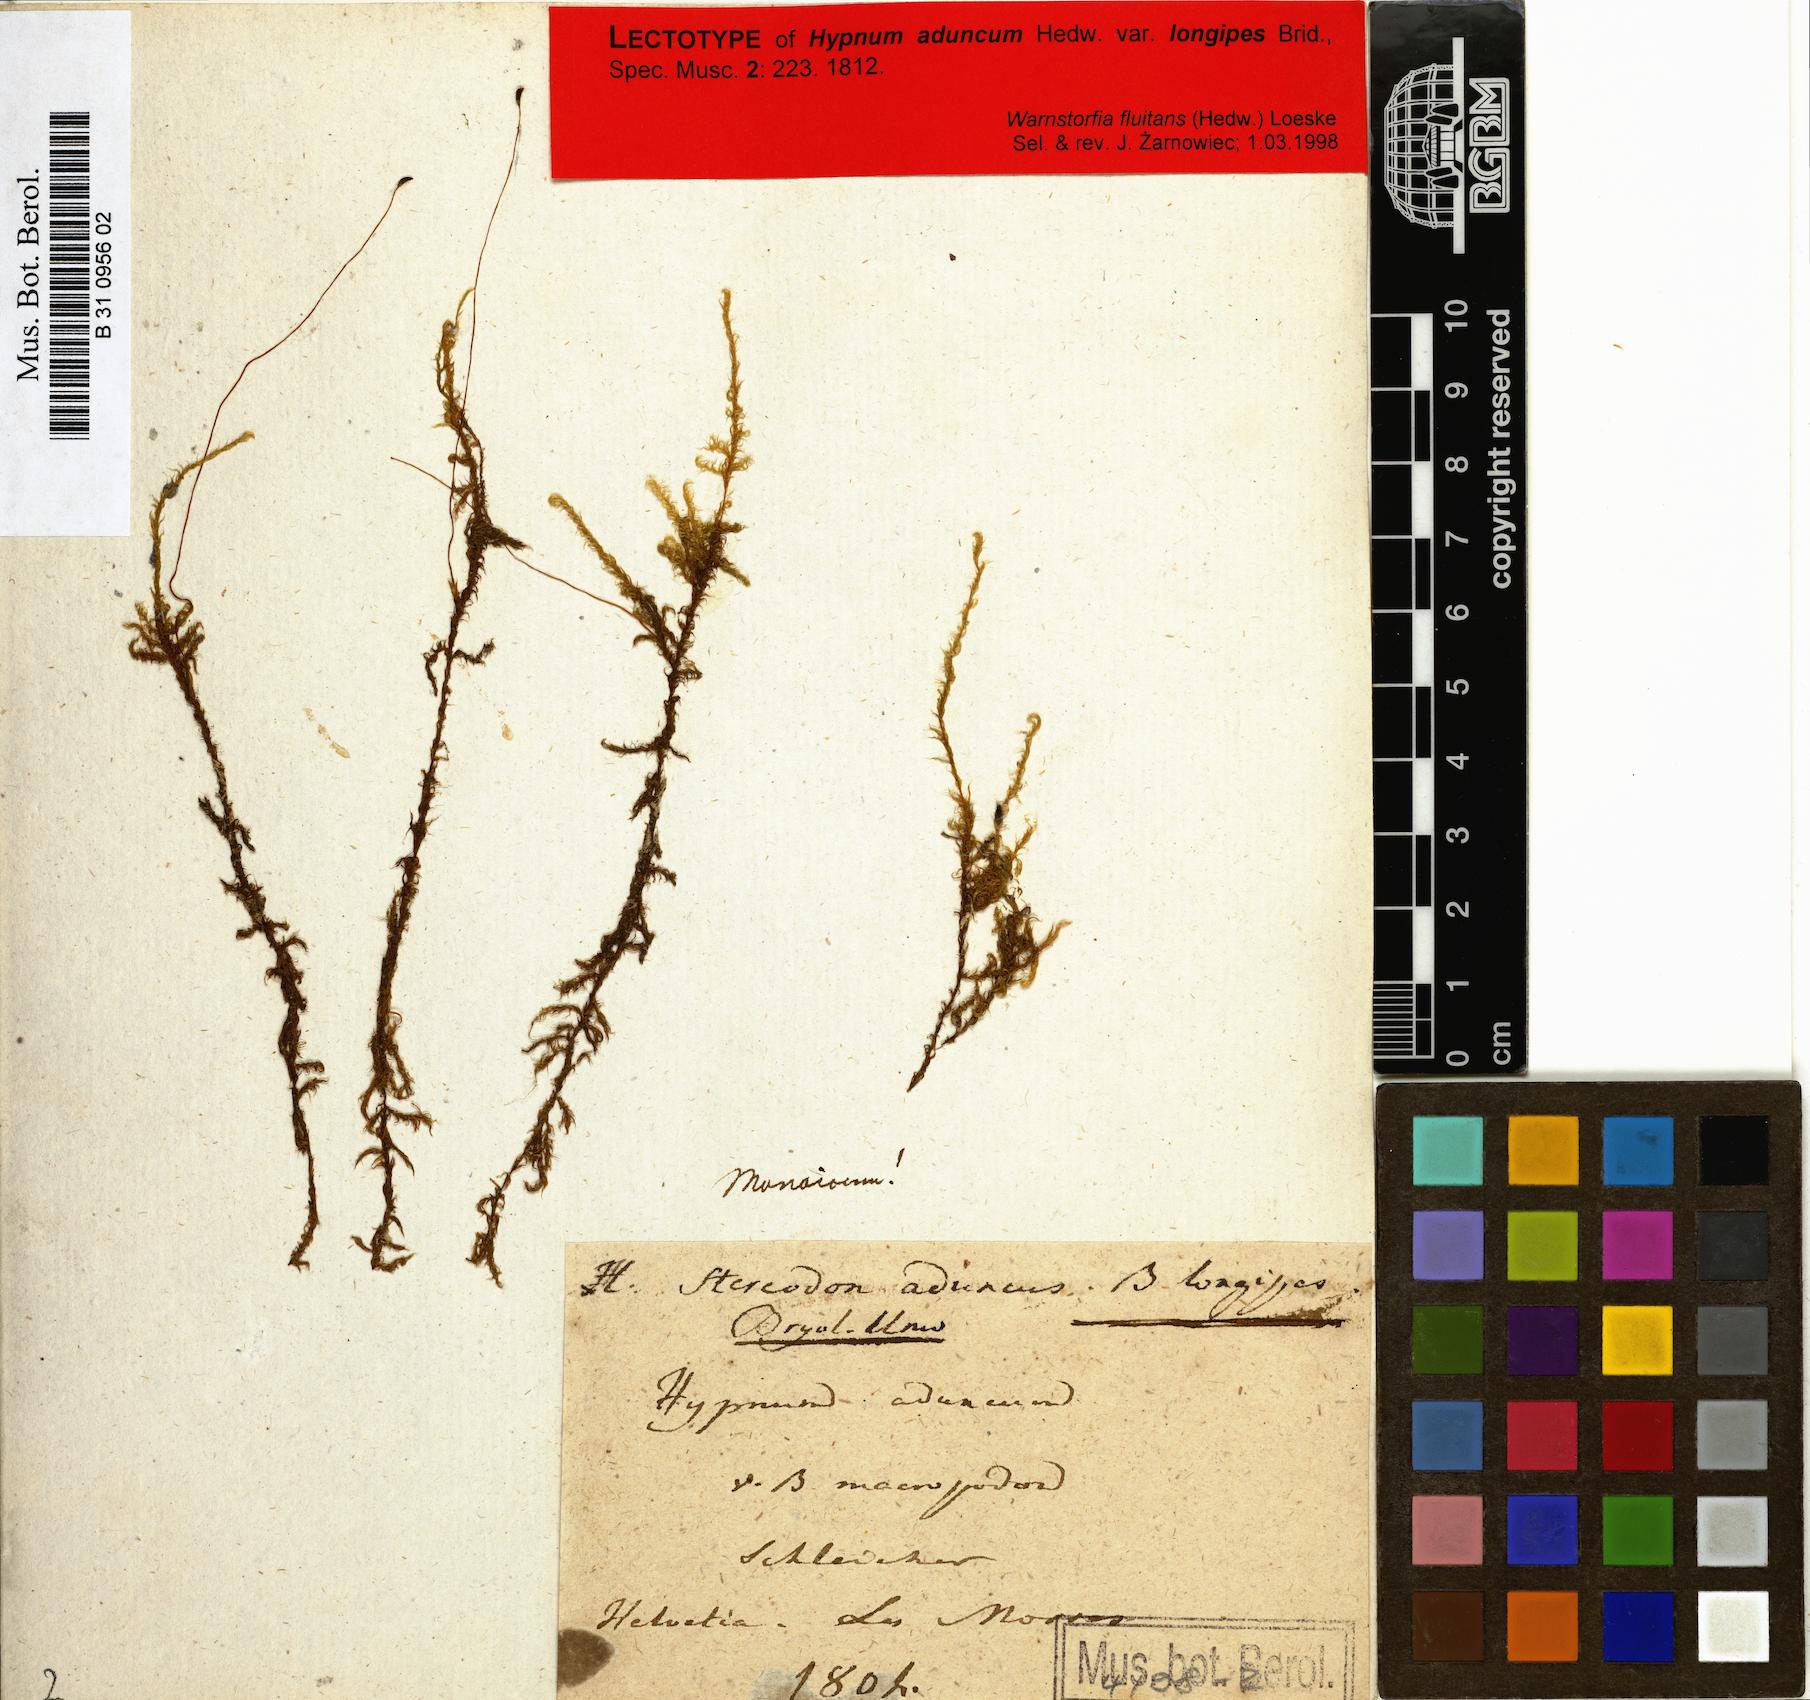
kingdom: Plantae
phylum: Bryophyta
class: Bryopsida
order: Hypnales
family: Amblystegiaceae
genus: Drepanocladus
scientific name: Drepanocladus aduncus
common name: Knieff's hook moss
